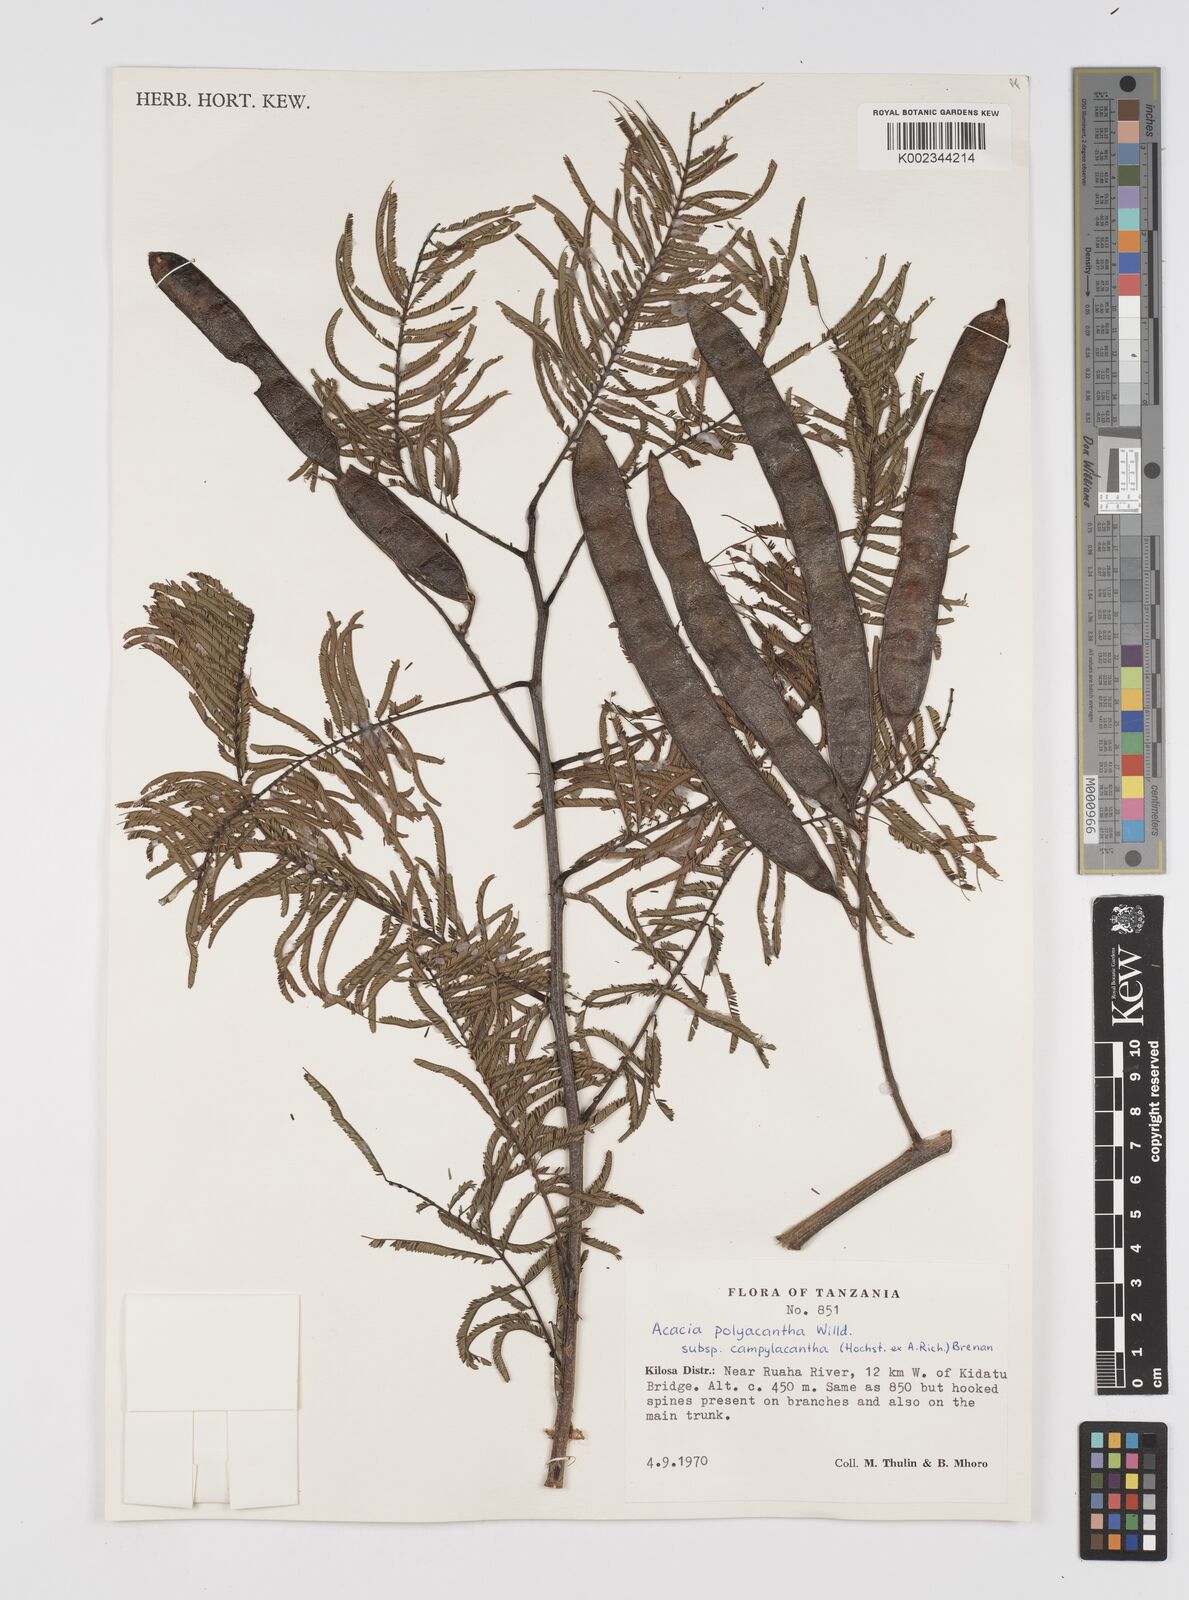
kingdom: Plantae
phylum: Tracheophyta
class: Magnoliopsida
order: Fabales
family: Fabaceae
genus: Senegalia
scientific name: Senegalia polyacantha
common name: Whitethorn
